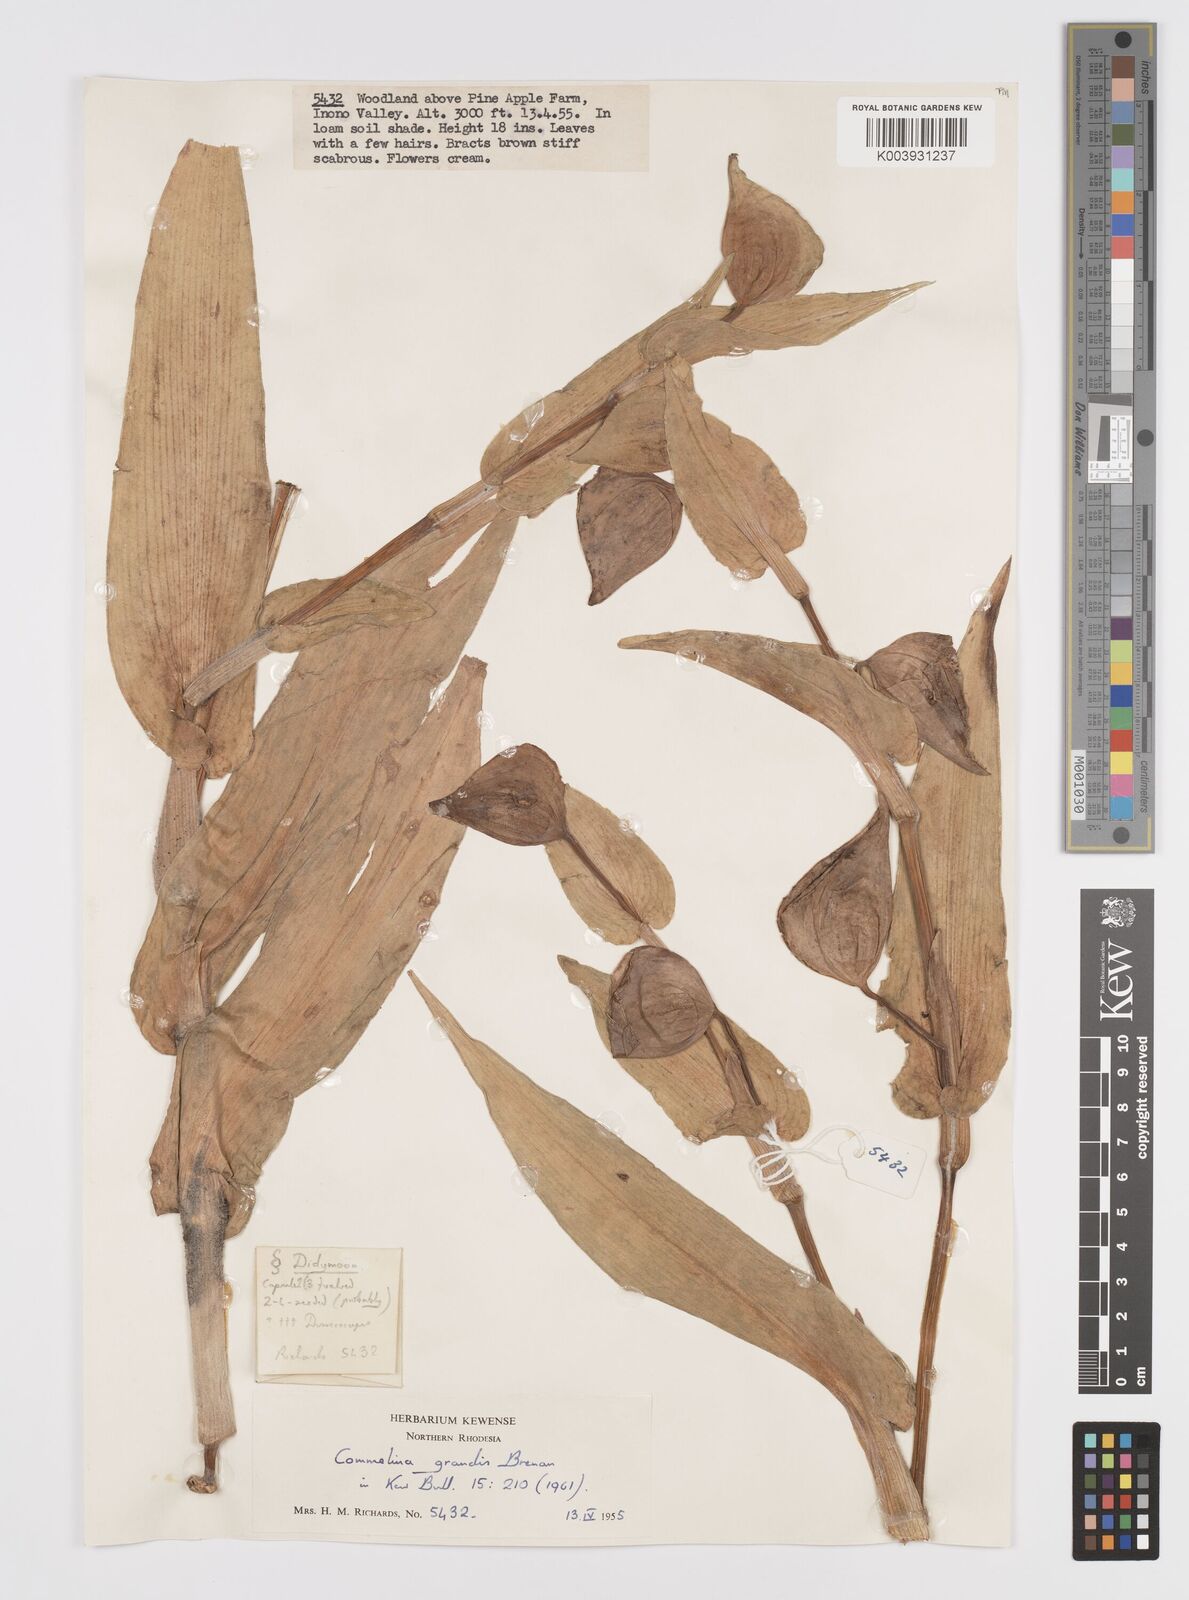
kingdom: Plantae
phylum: Tracheophyta
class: Liliopsida
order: Commelinales
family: Commelinaceae
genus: Commelina
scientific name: Commelina grandis
